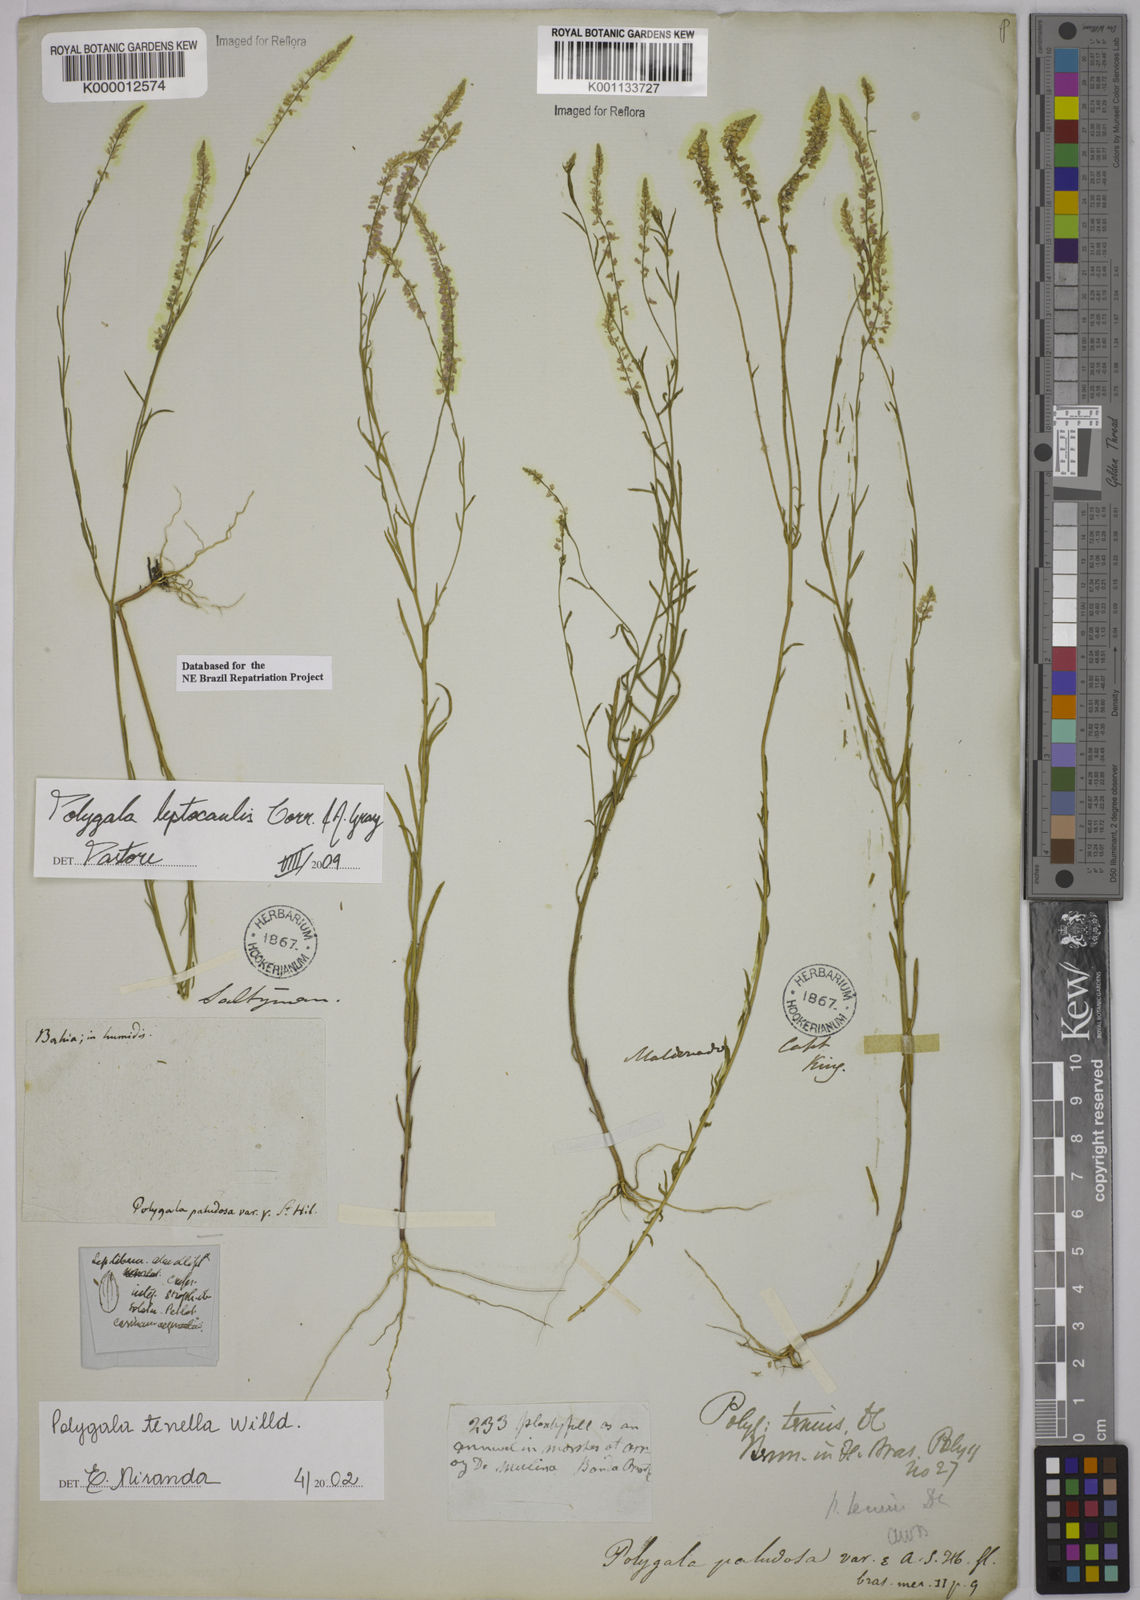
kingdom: Plantae
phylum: Tracheophyta
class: Magnoliopsida
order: Fabales
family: Polygalaceae
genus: Polygala
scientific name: Polygala tenella
